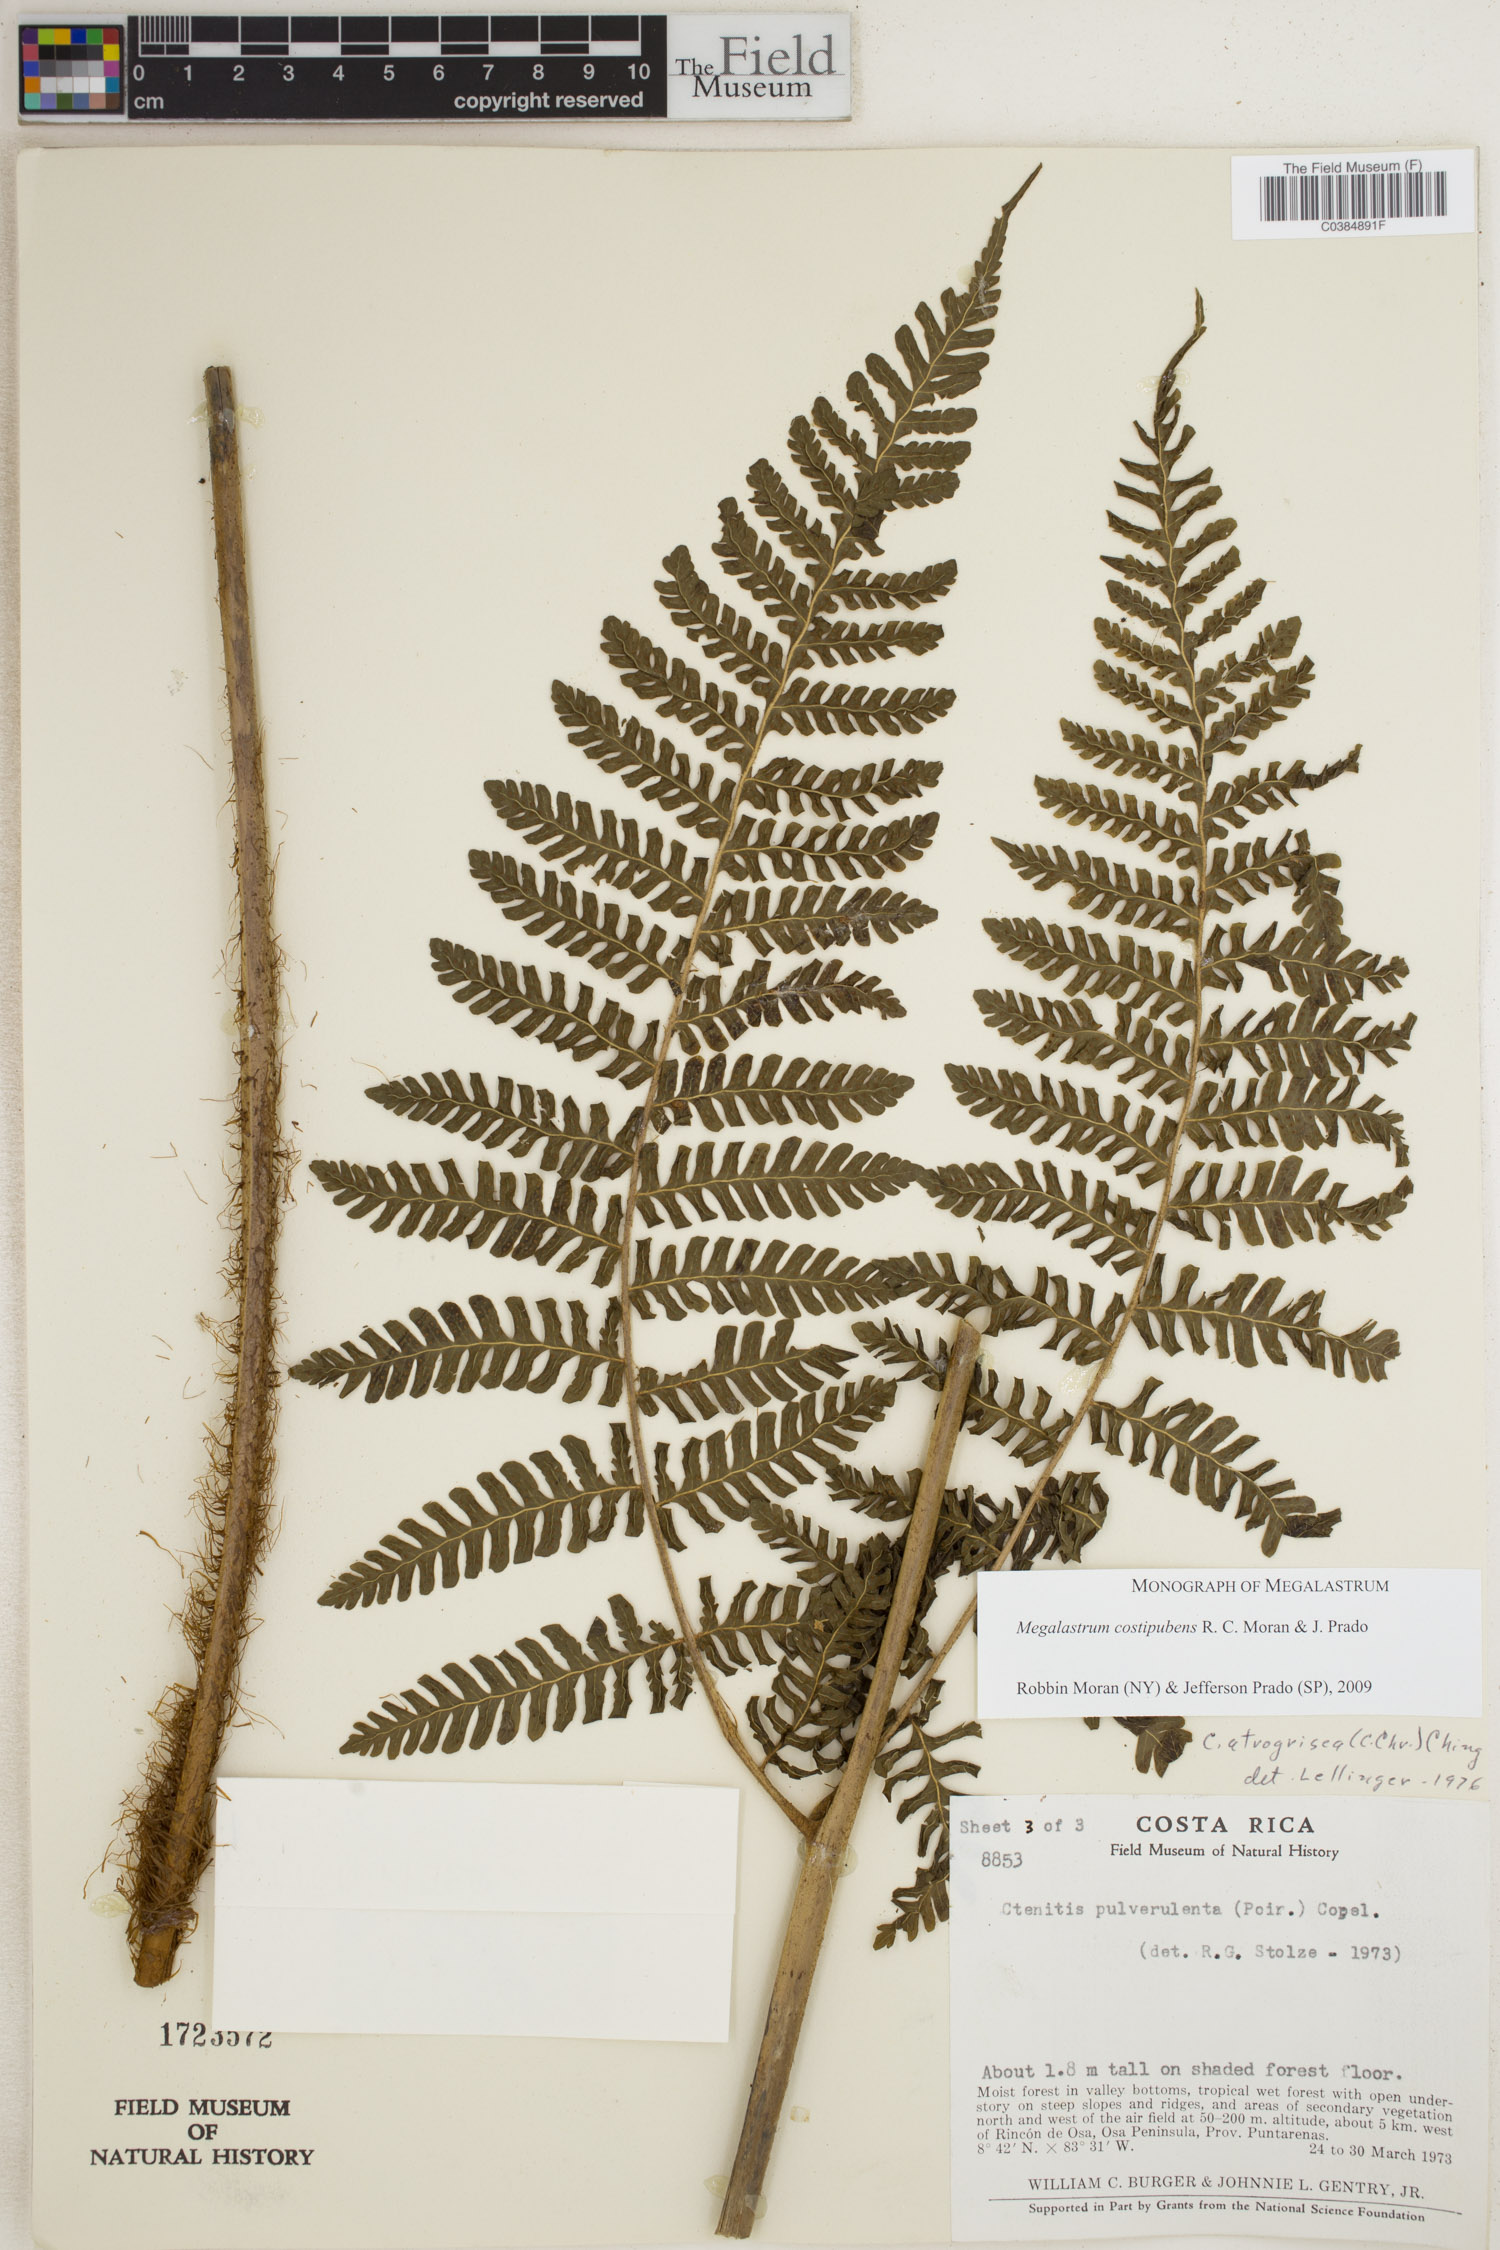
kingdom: Plantae
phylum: Tracheophyta
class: Polypodiopsida
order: Polypodiales
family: Dryopteridaceae
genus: Megalastrum
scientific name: Megalastrum costipubens
